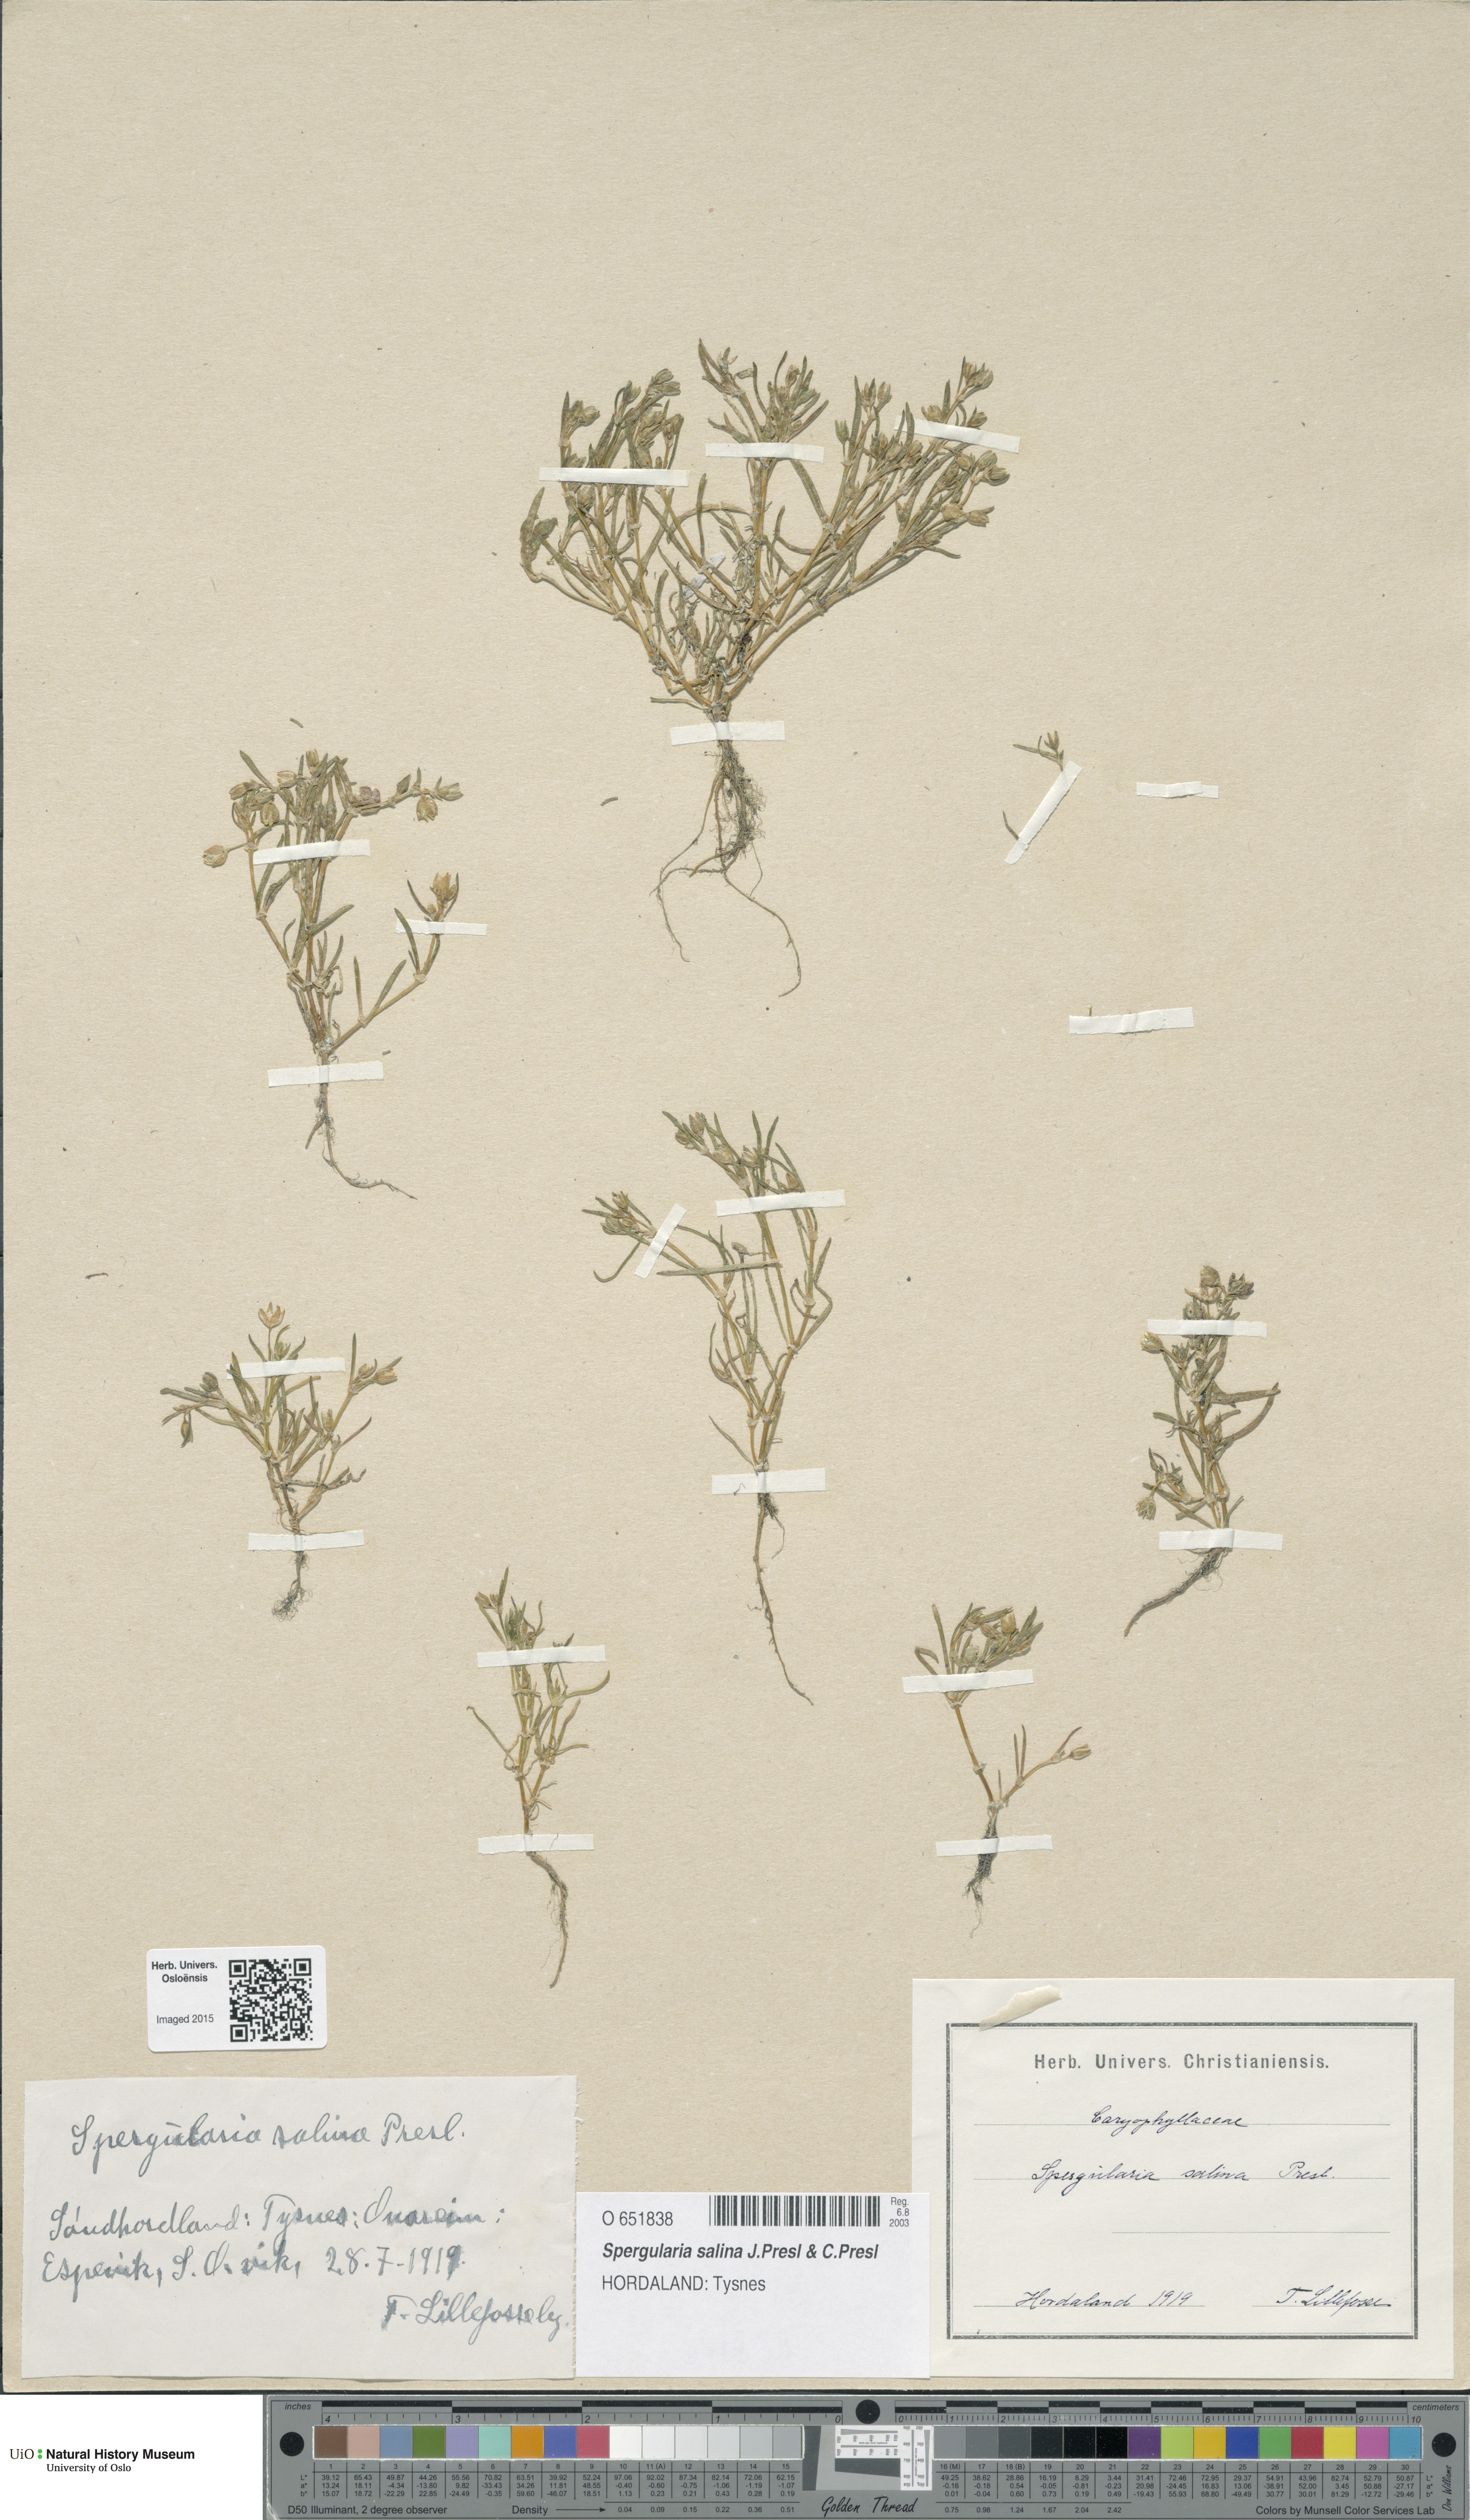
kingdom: Plantae
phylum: Tracheophyta
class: Magnoliopsida
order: Caryophyllales
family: Caryophyllaceae
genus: Spergularia
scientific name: Spergularia marina
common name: Lesser sea-spurrey
